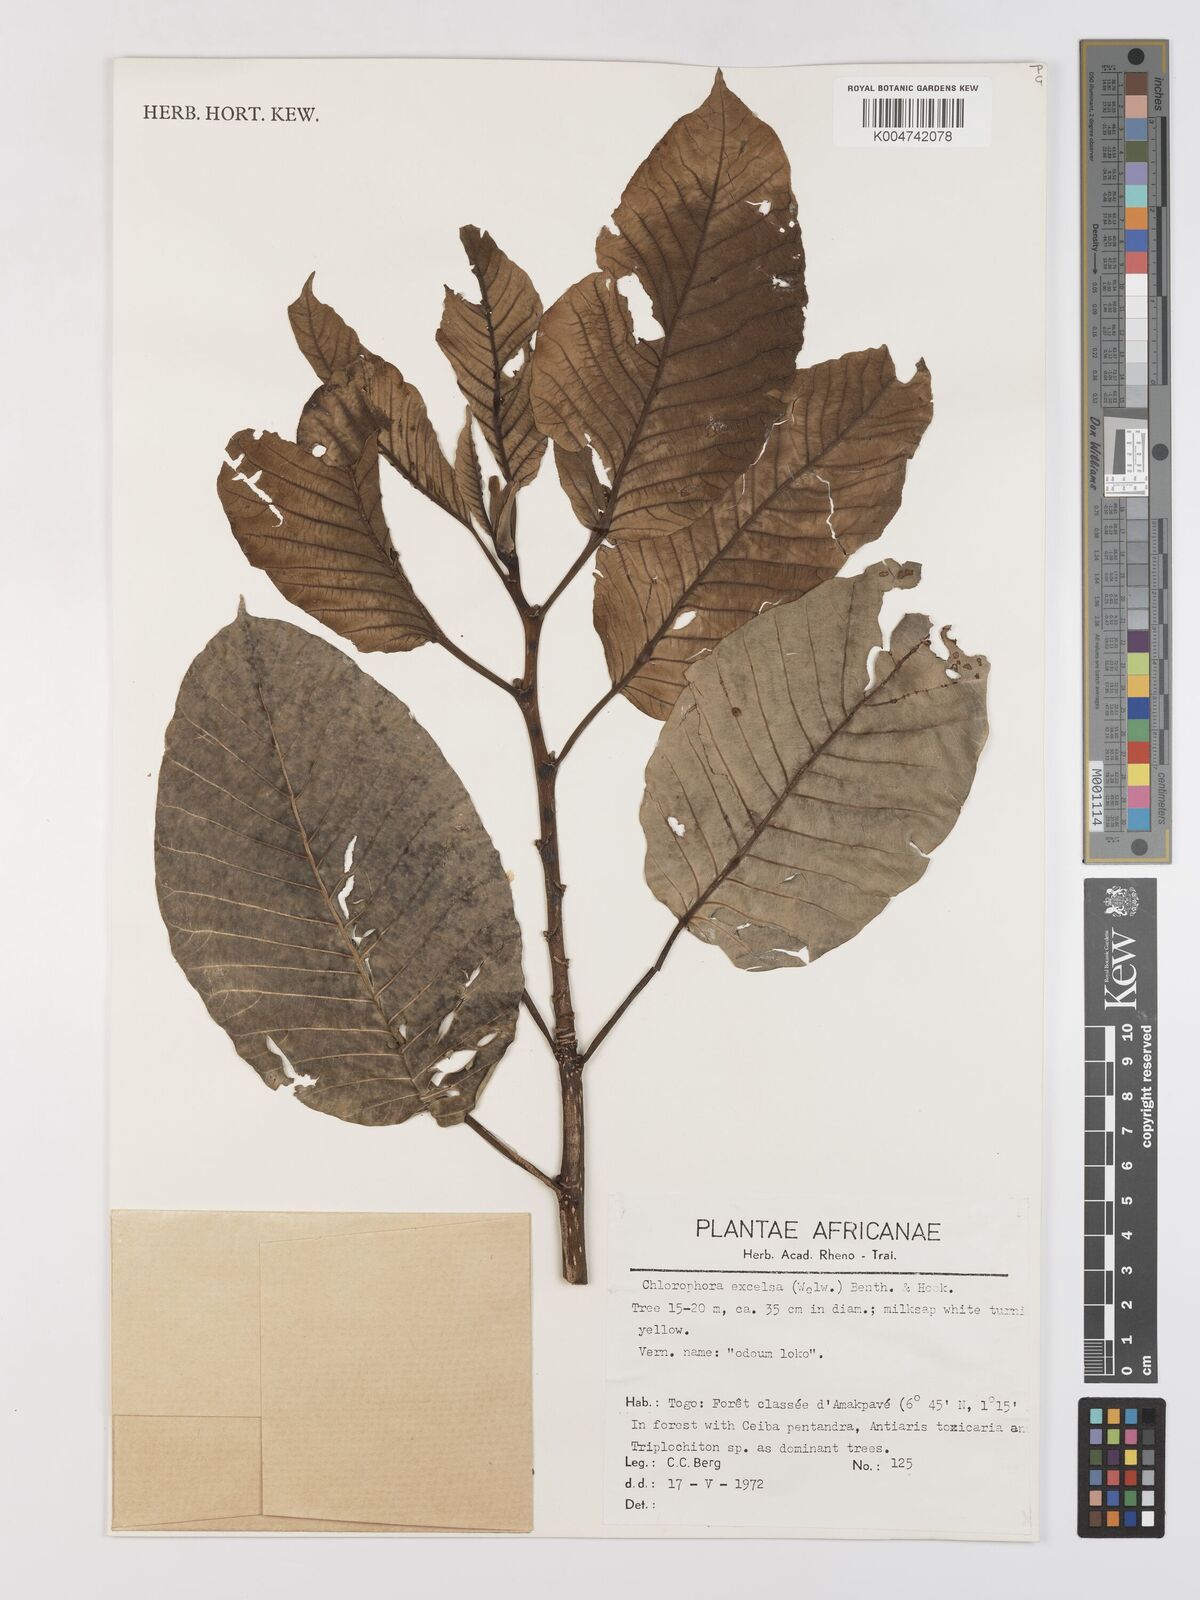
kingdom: Plantae
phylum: Tracheophyta
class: Magnoliopsida
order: Rosales
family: Moraceae
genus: Milicia
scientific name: Milicia excelsa
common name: African teak
